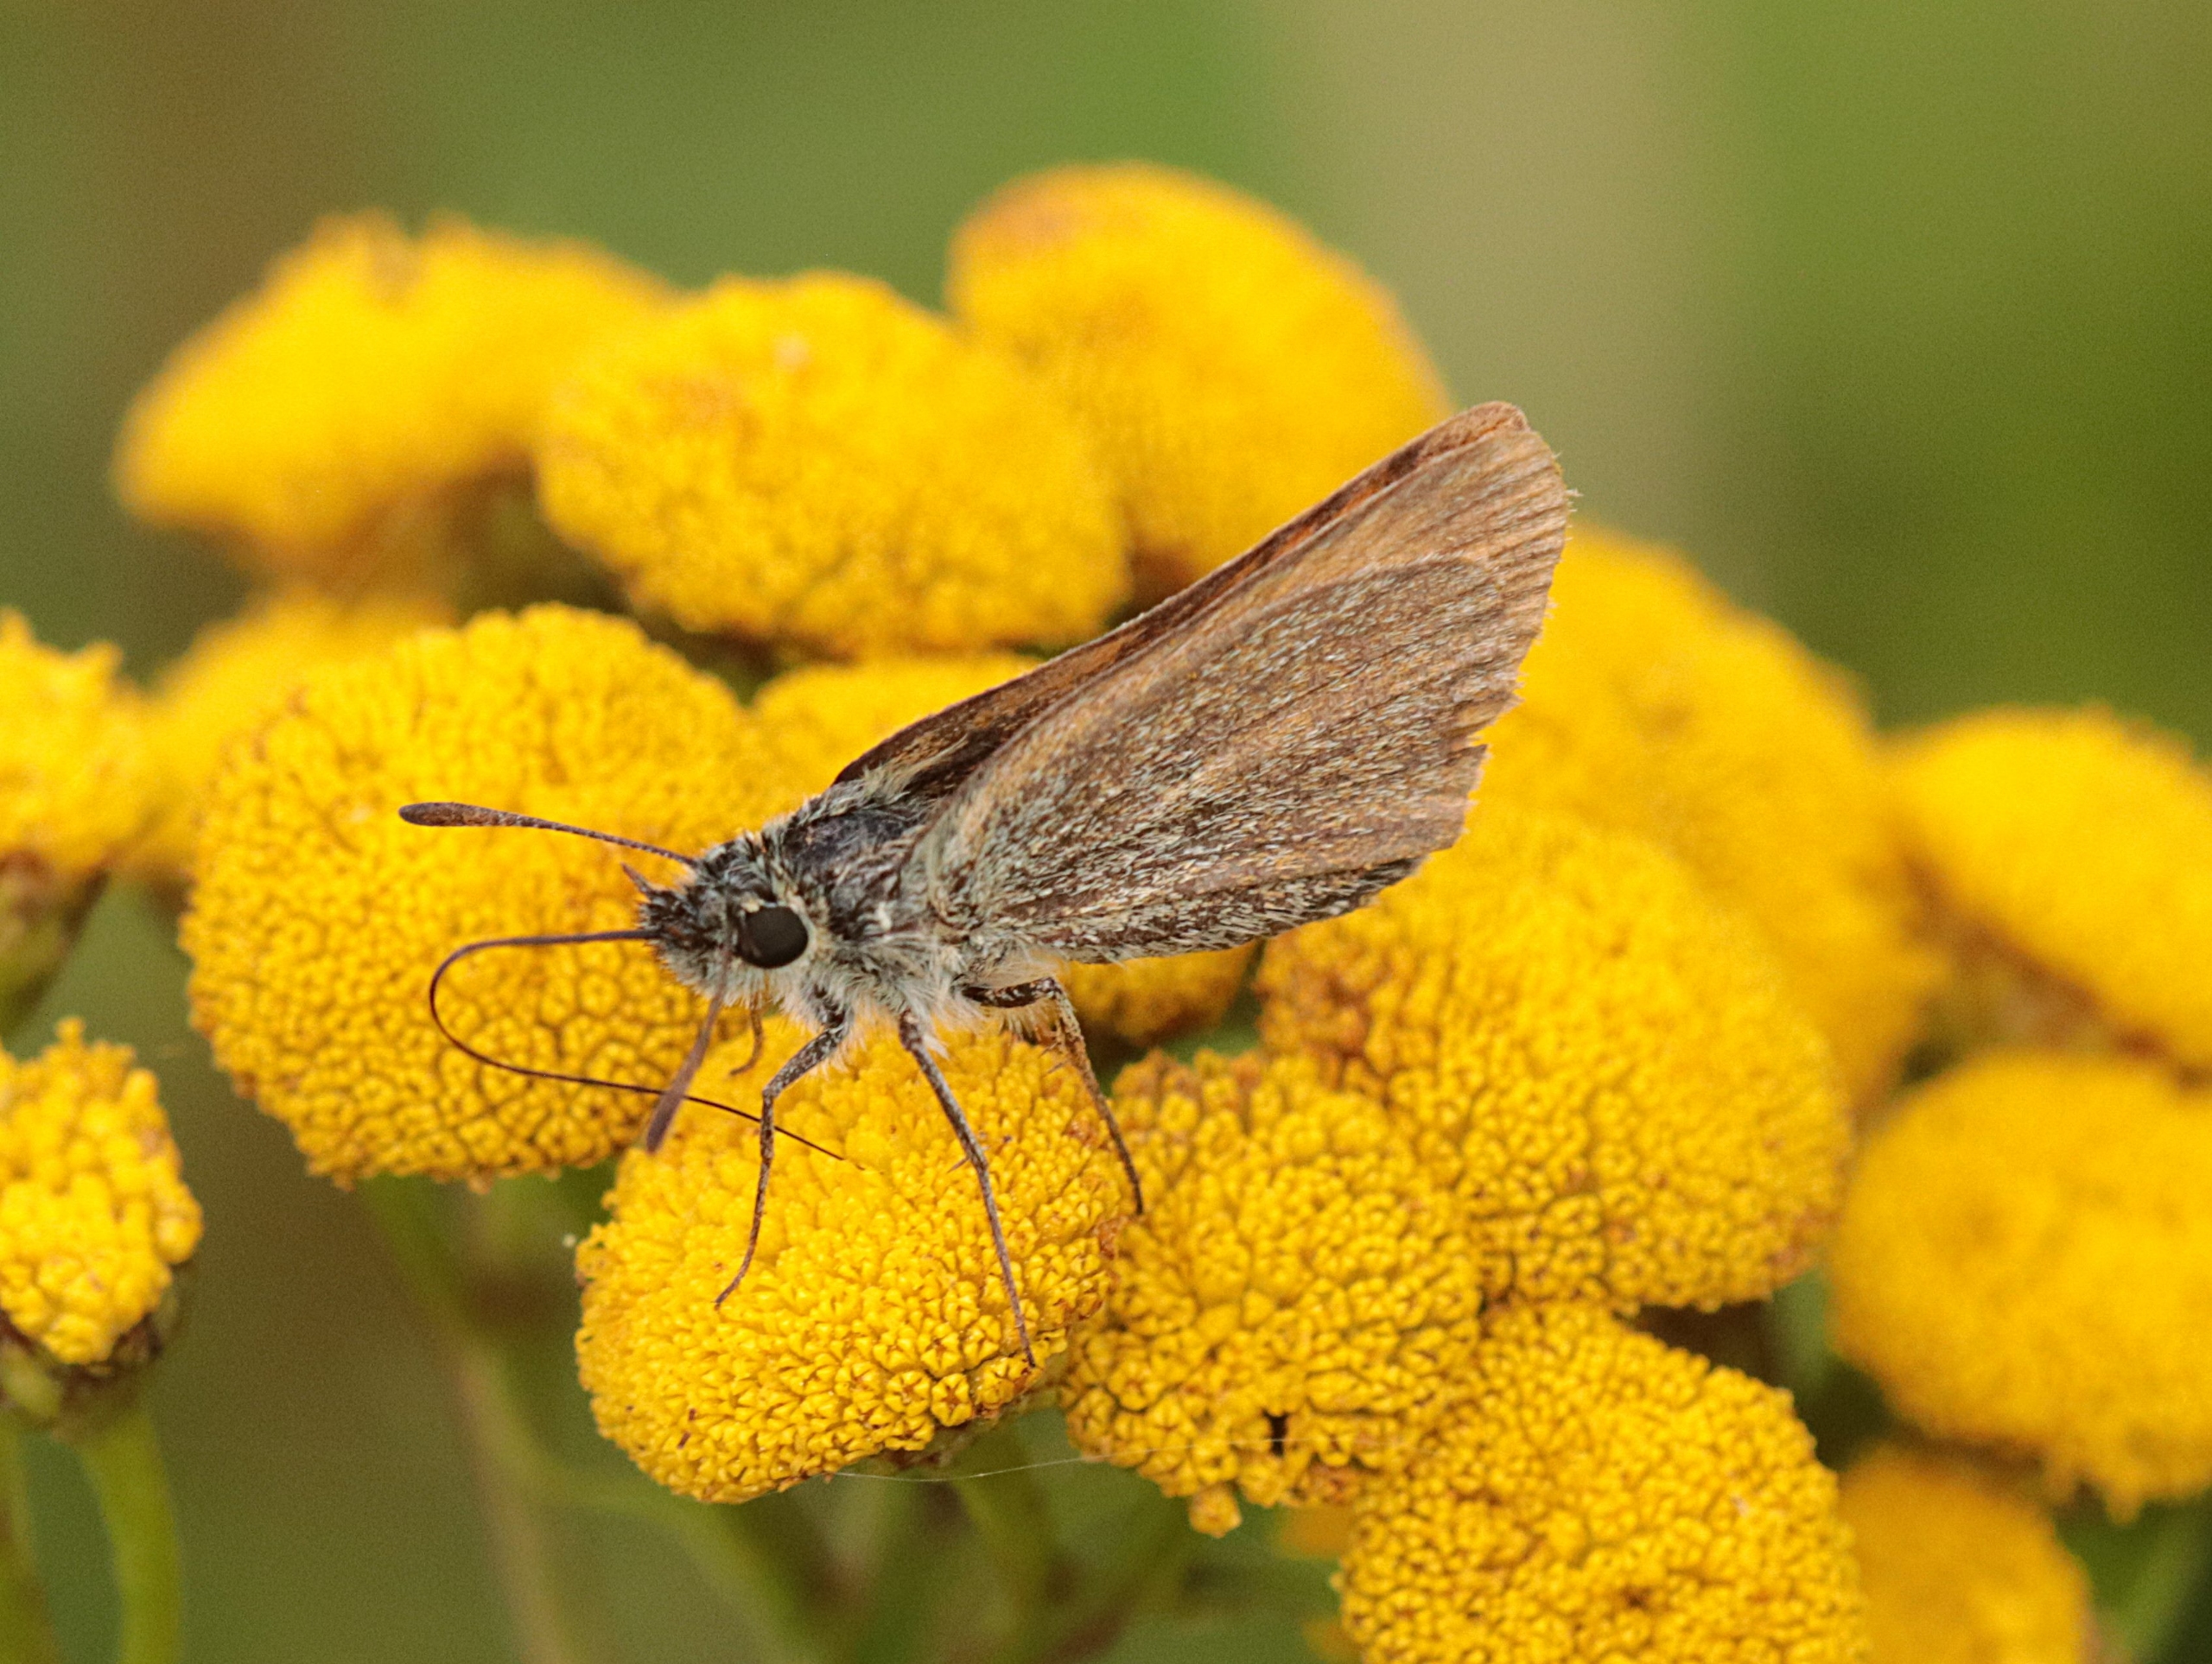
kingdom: Animalia
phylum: Arthropoda
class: Insecta
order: Lepidoptera
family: Hesperiidae
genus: Thymelicus
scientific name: Thymelicus lineola
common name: Stregbredpande
